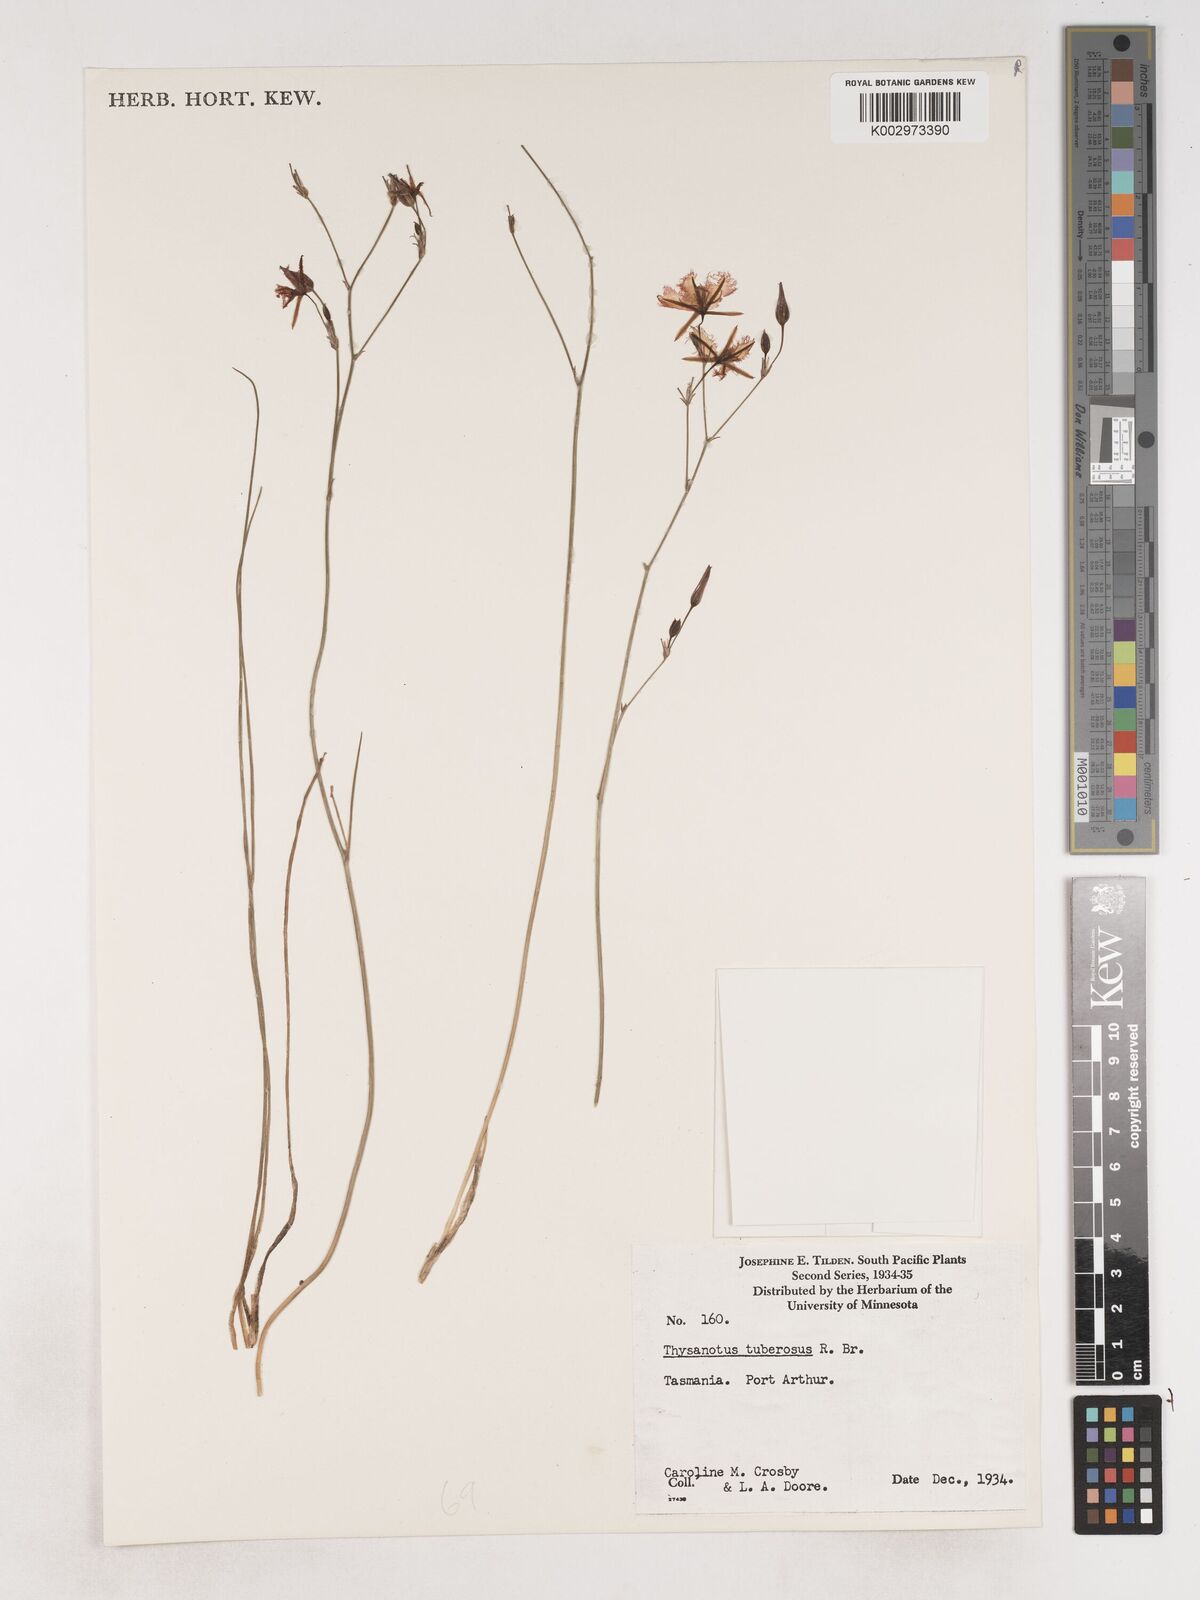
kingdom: Plantae
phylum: Tracheophyta
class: Liliopsida
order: Asparagales
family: Asparagaceae
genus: Thysanotus
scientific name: Thysanotus tuberosus
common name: Common fringed-lily
